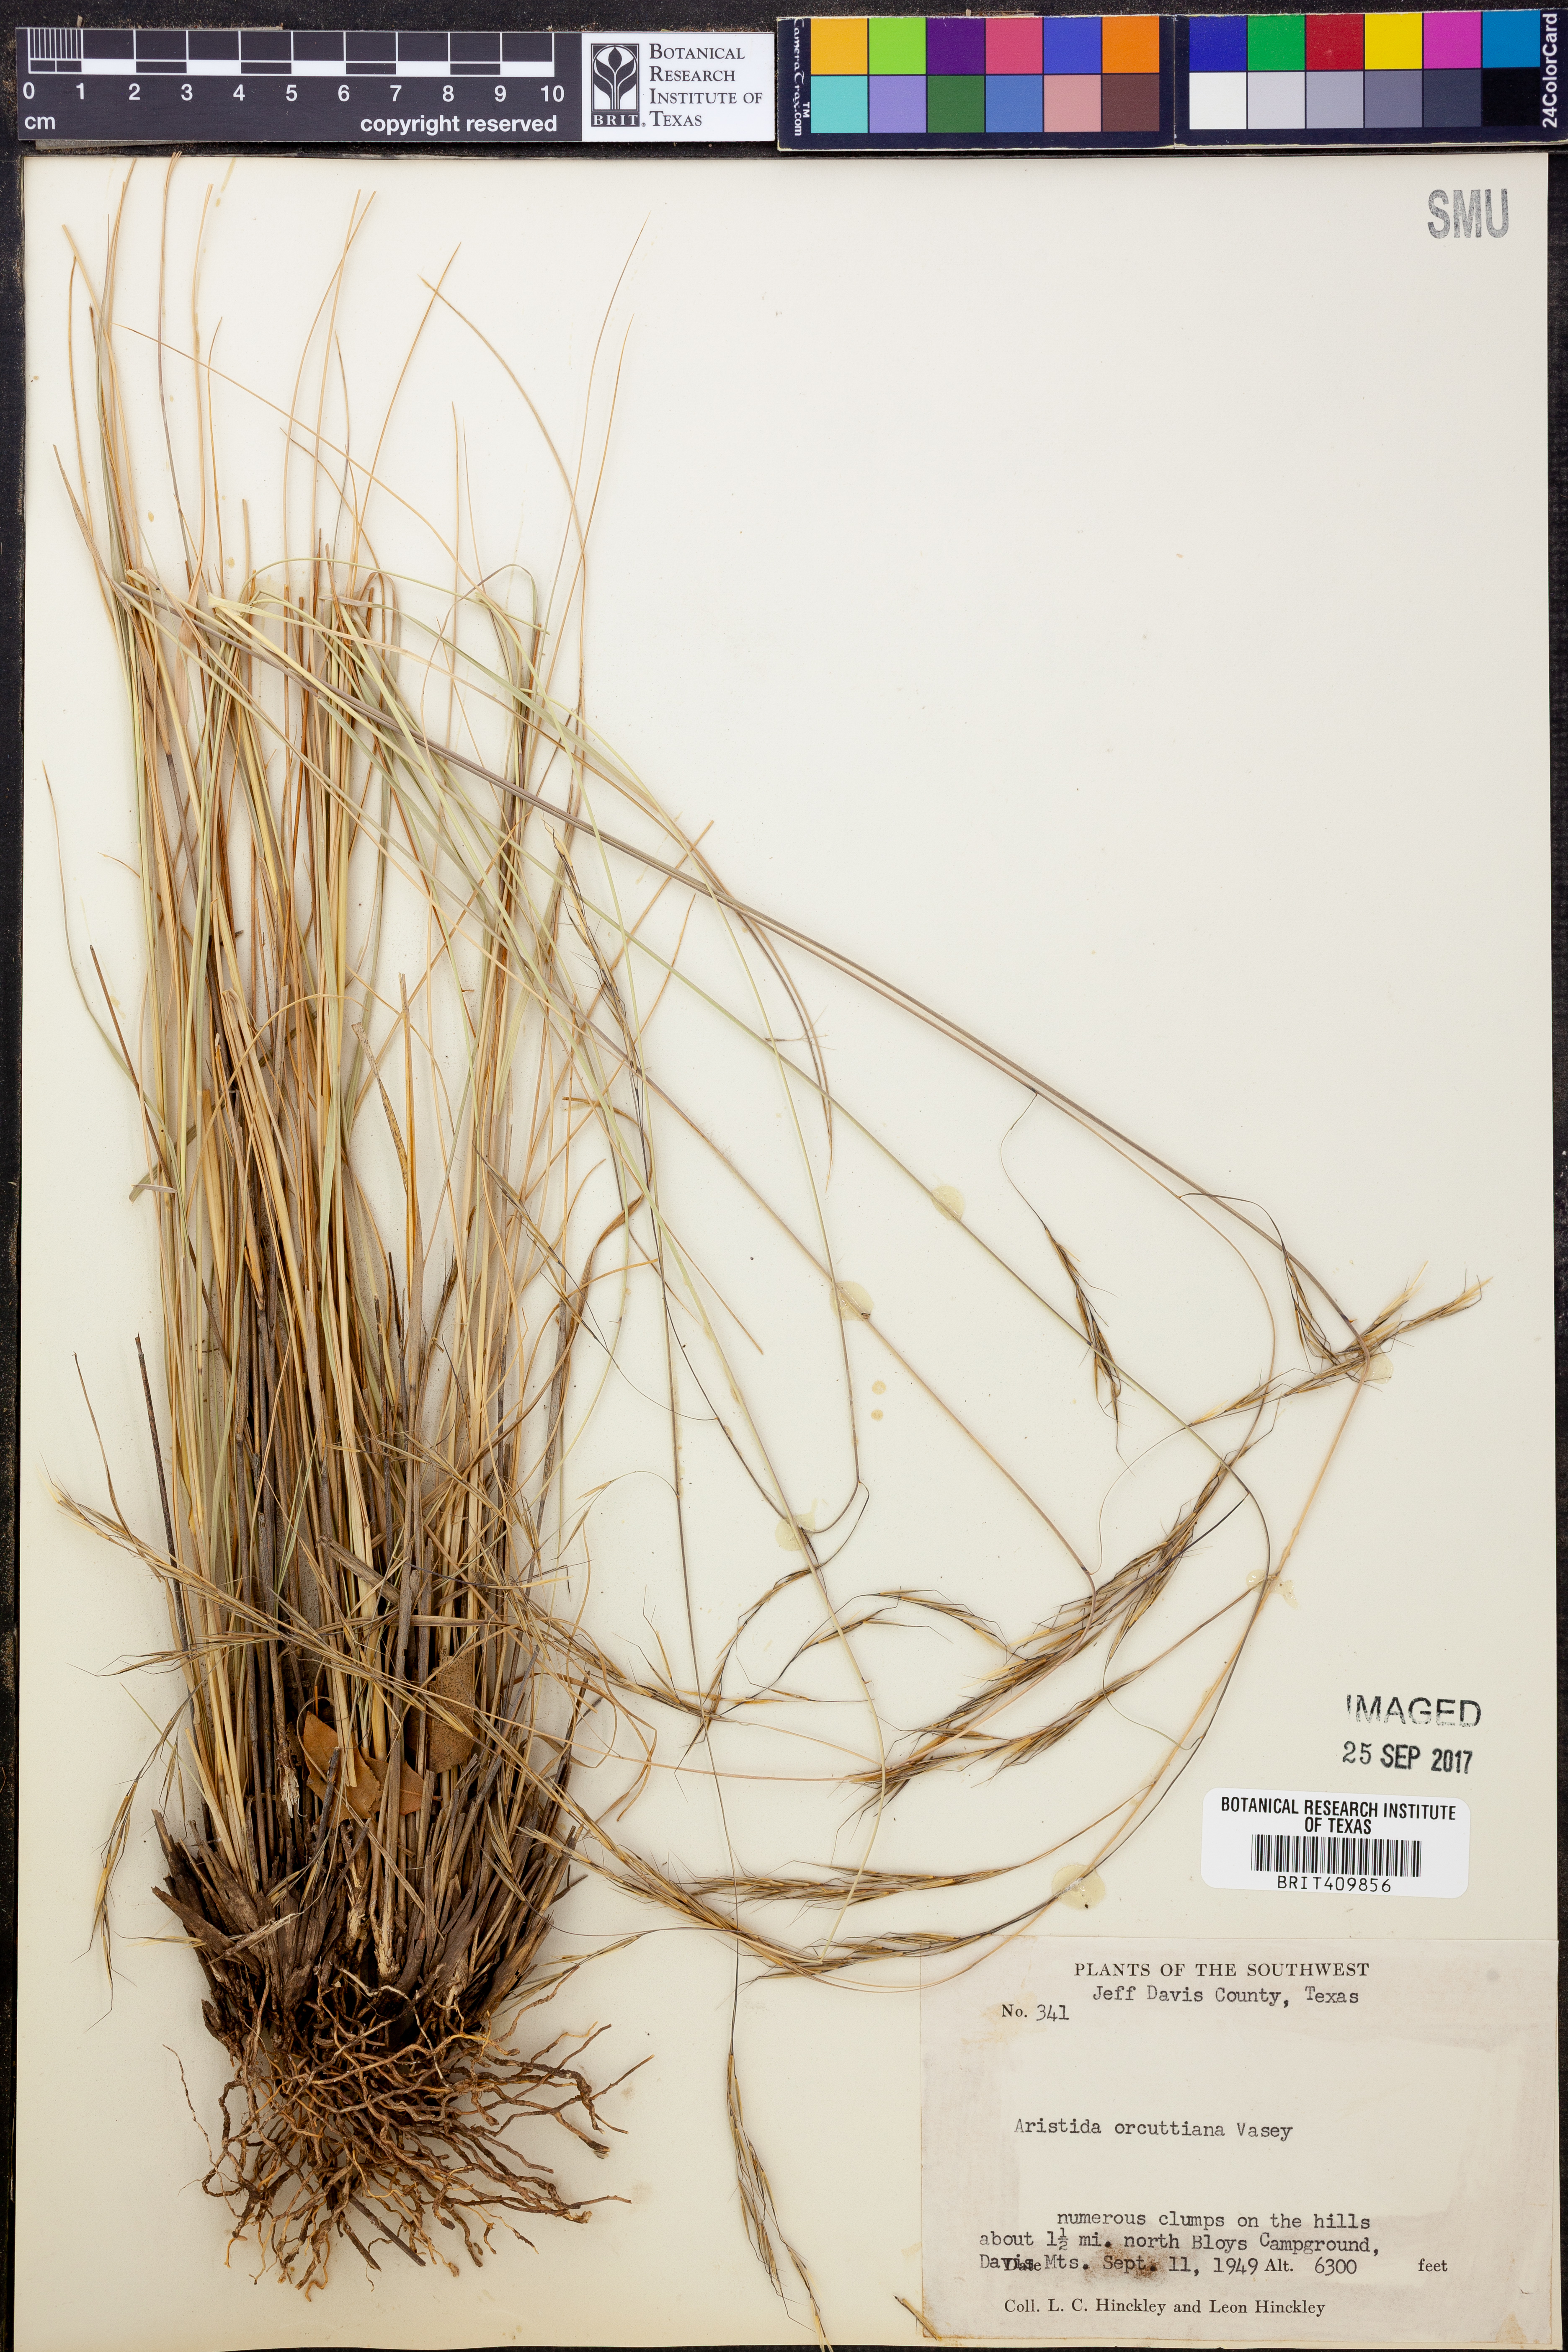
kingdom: Plantae
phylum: Tracheophyta
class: Liliopsida
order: Poales
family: Poaceae
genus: Aristida
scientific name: Aristida schiedeana
